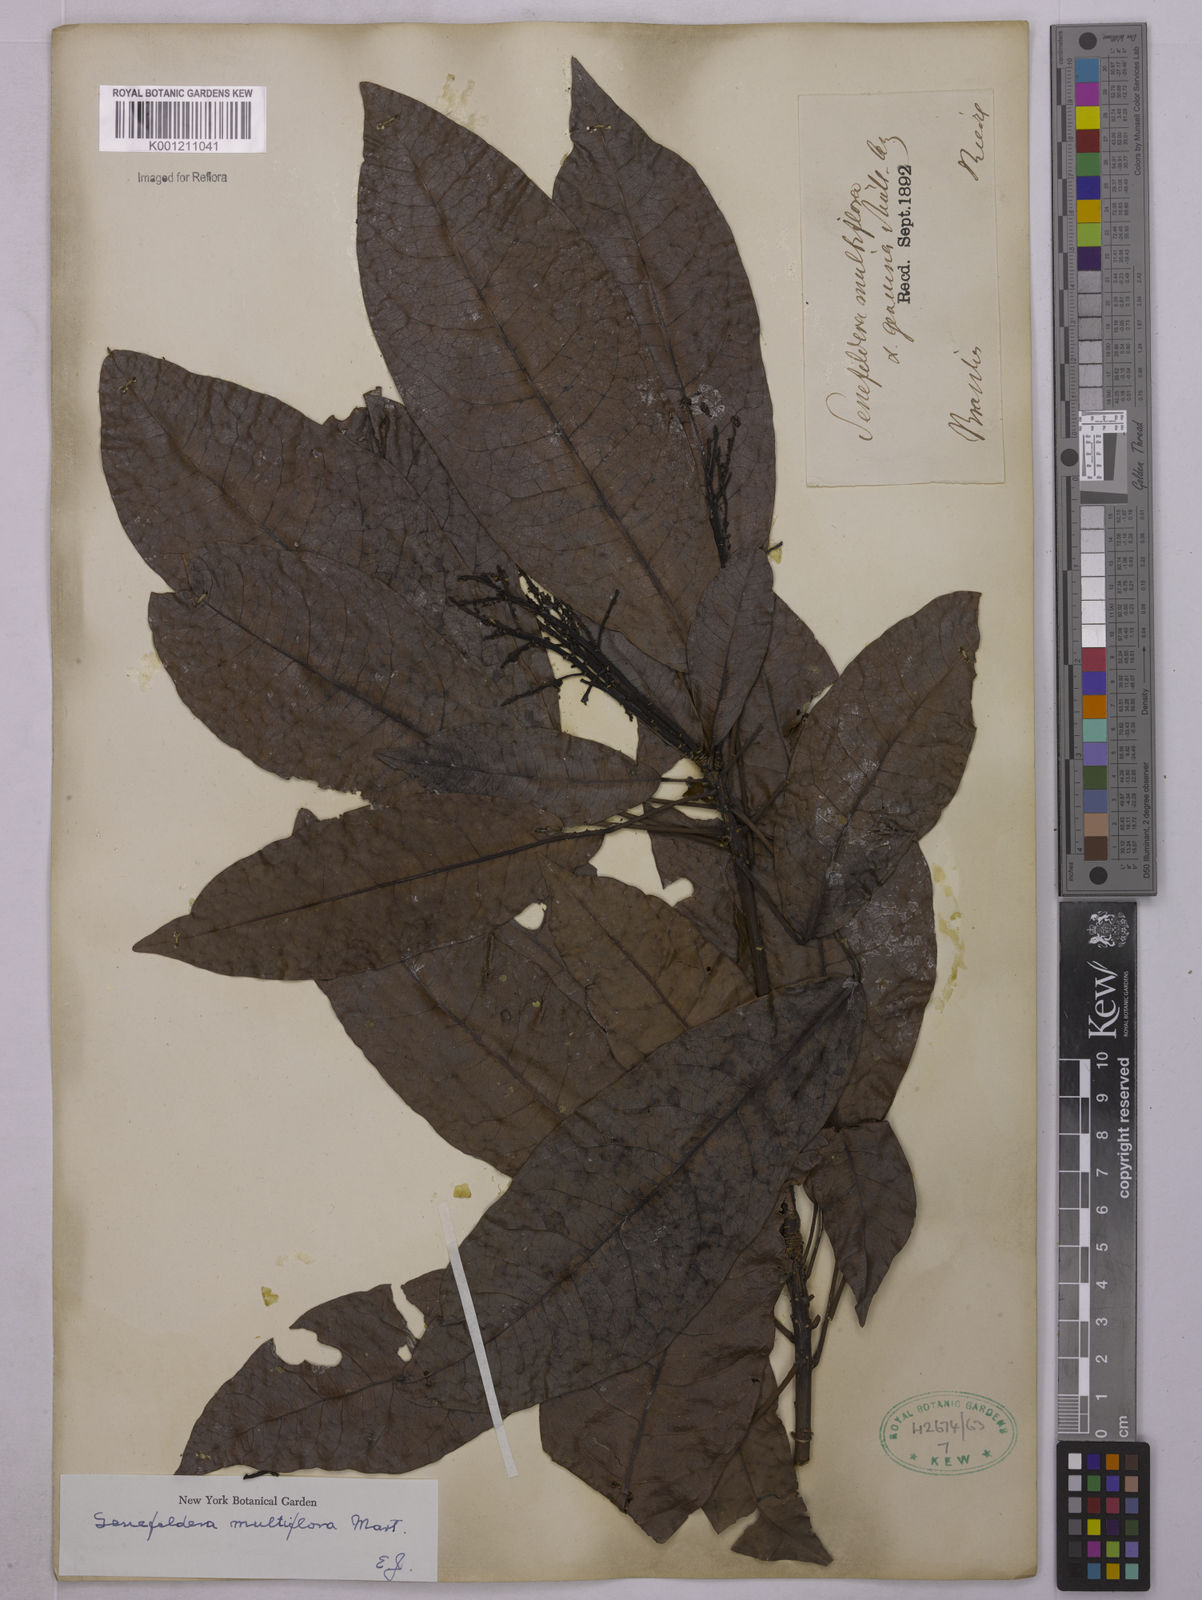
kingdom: Plantae
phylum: Tracheophyta
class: Magnoliopsida
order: Malpighiales
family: Euphorbiaceae
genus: Senefeldera
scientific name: Senefeldera verticillata
